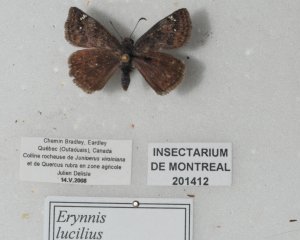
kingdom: Animalia
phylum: Arthropoda
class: Insecta
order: Lepidoptera
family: Hesperiidae
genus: Gesta
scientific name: Gesta
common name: Columbine Duskywing
